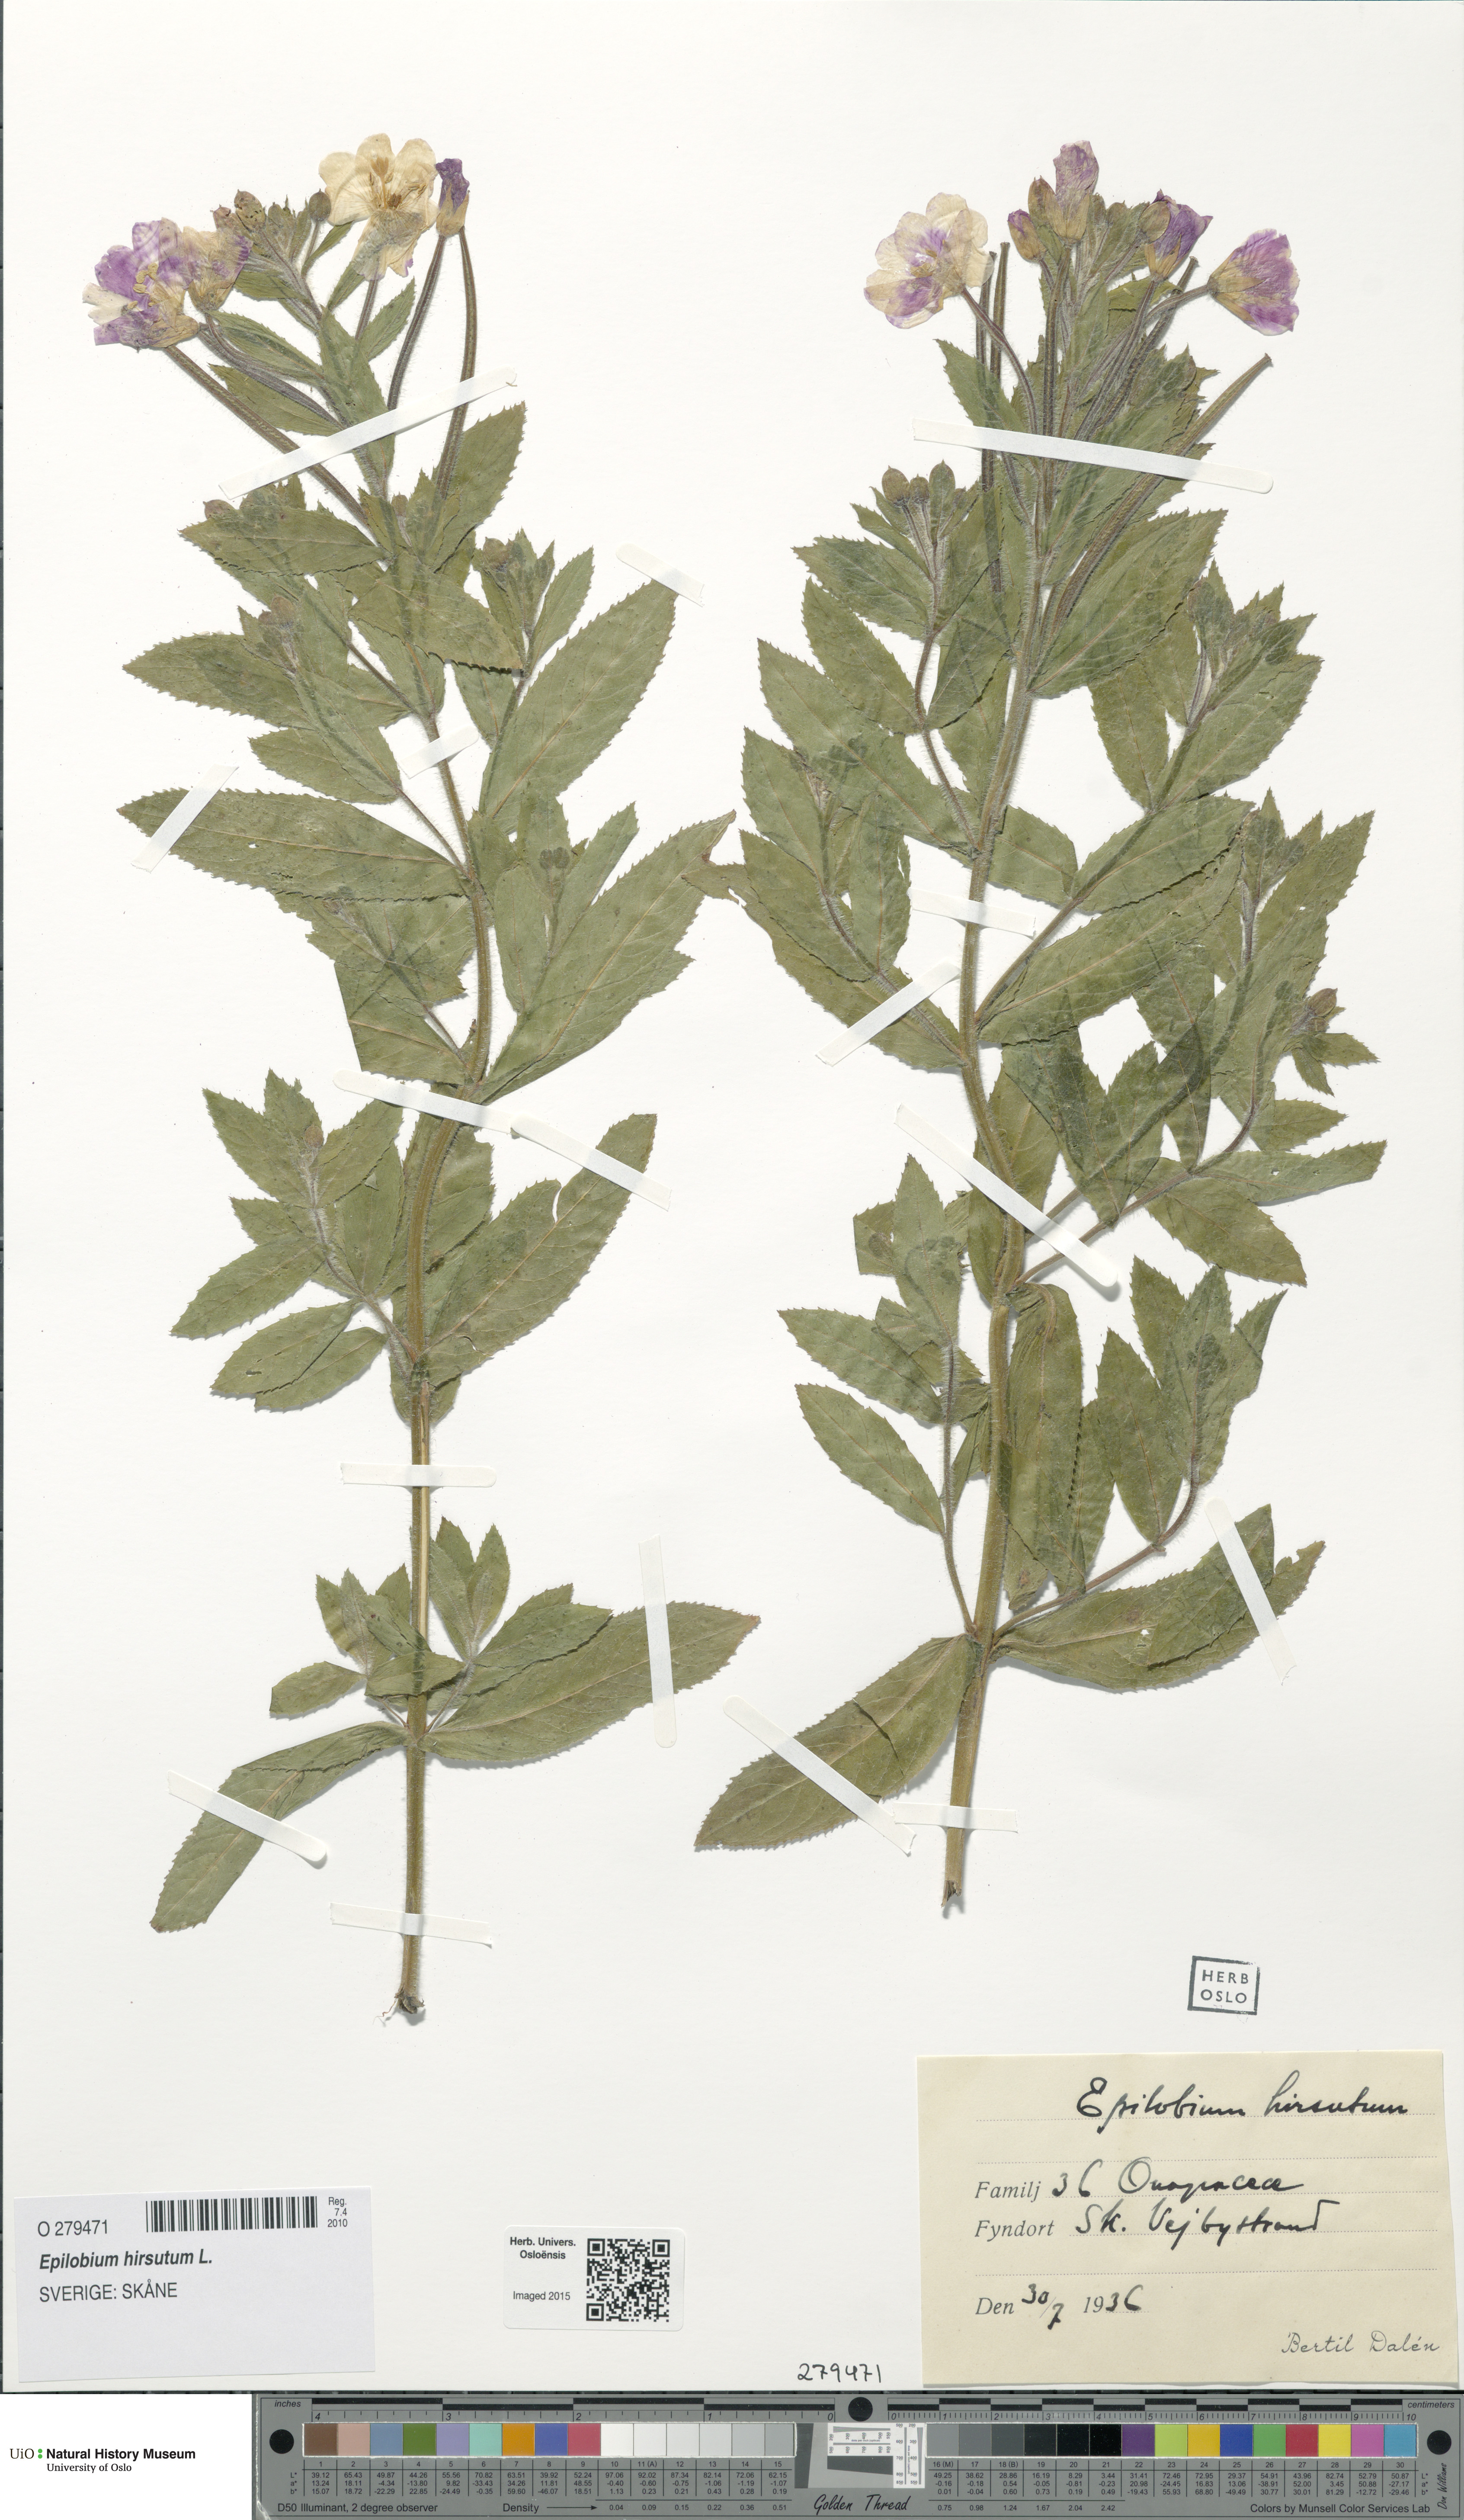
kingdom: Plantae
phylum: Tracheophyta
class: Magnoliopsida
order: Myrtales
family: Onagraceae
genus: Epilobium
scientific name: Epilobium hirsutum
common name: Great willowherb
